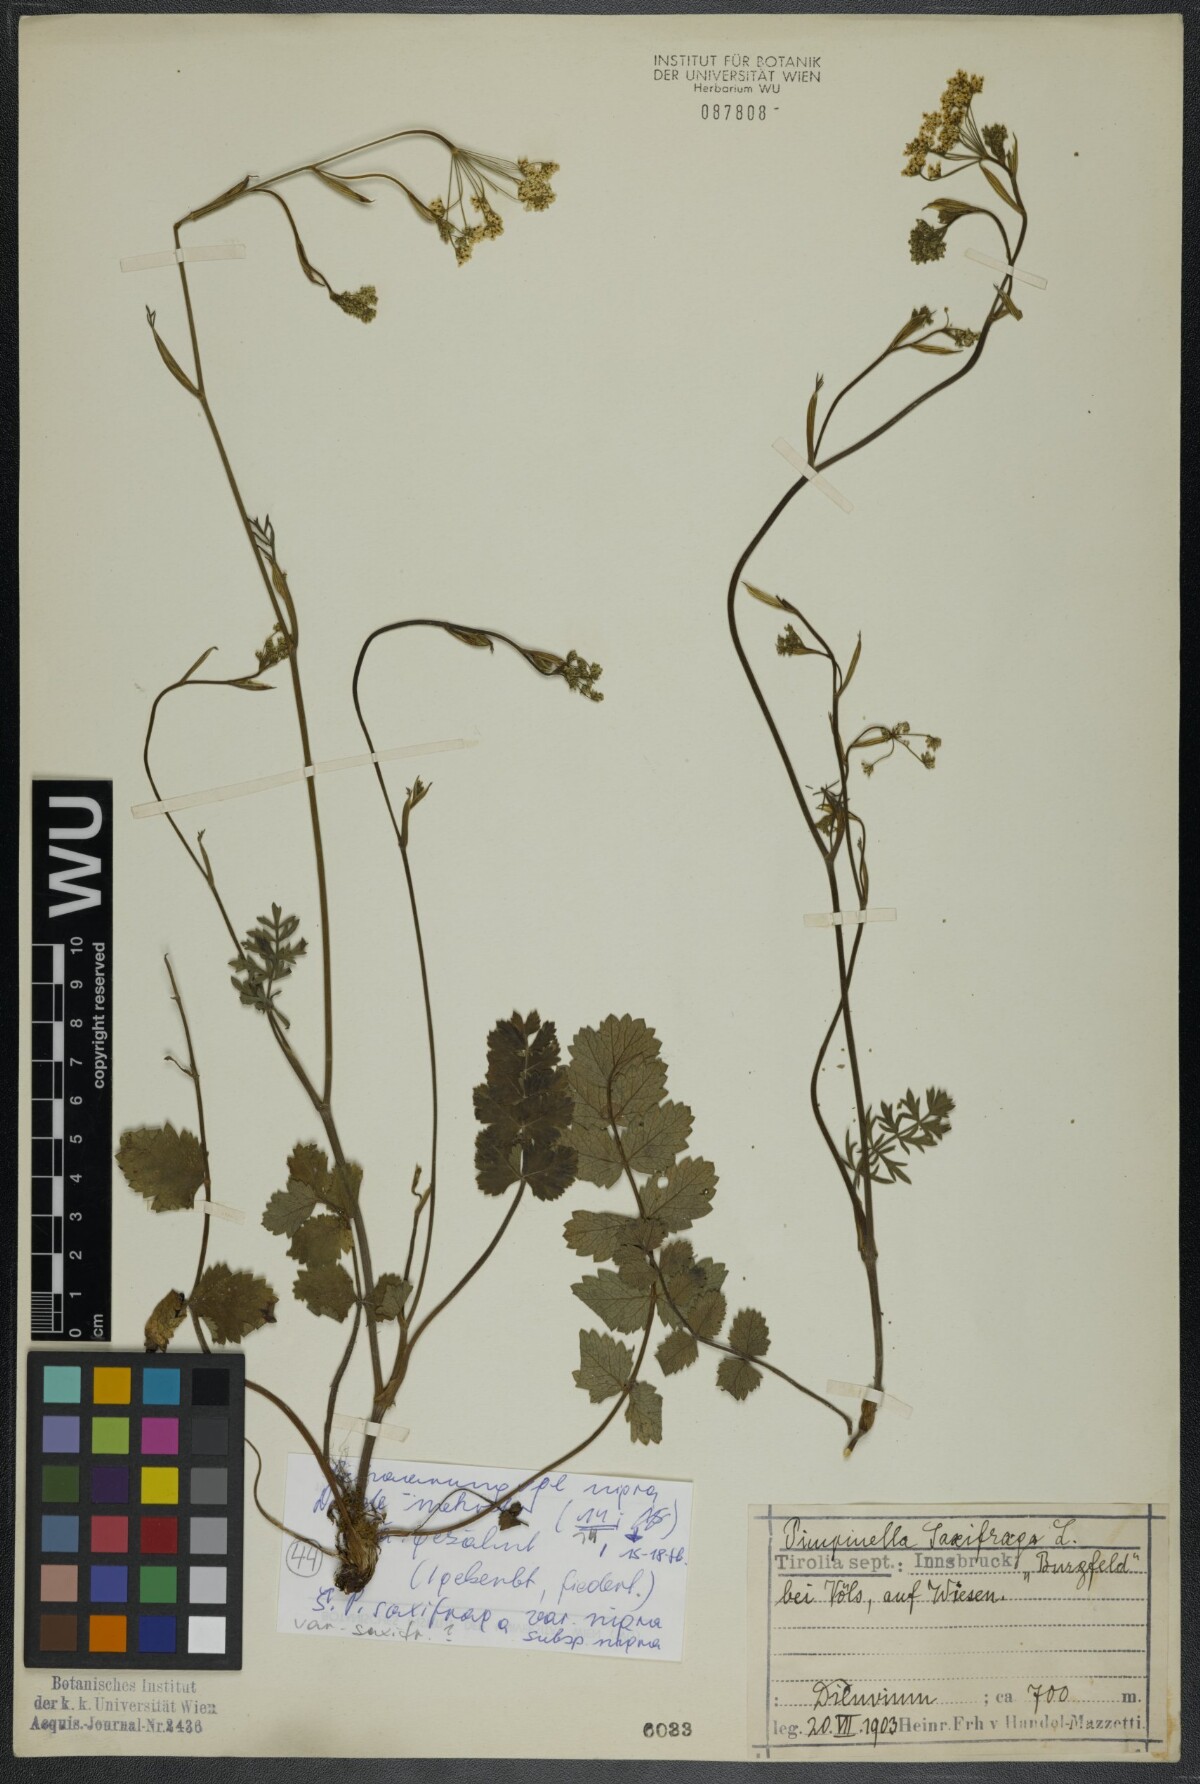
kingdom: Plantae
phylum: Tracheophyta
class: Magnoliopsida
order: Apiales
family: Apiaceae
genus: Pimpinella
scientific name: Pimpinella saxifraga
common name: Burnet-saxifrage
